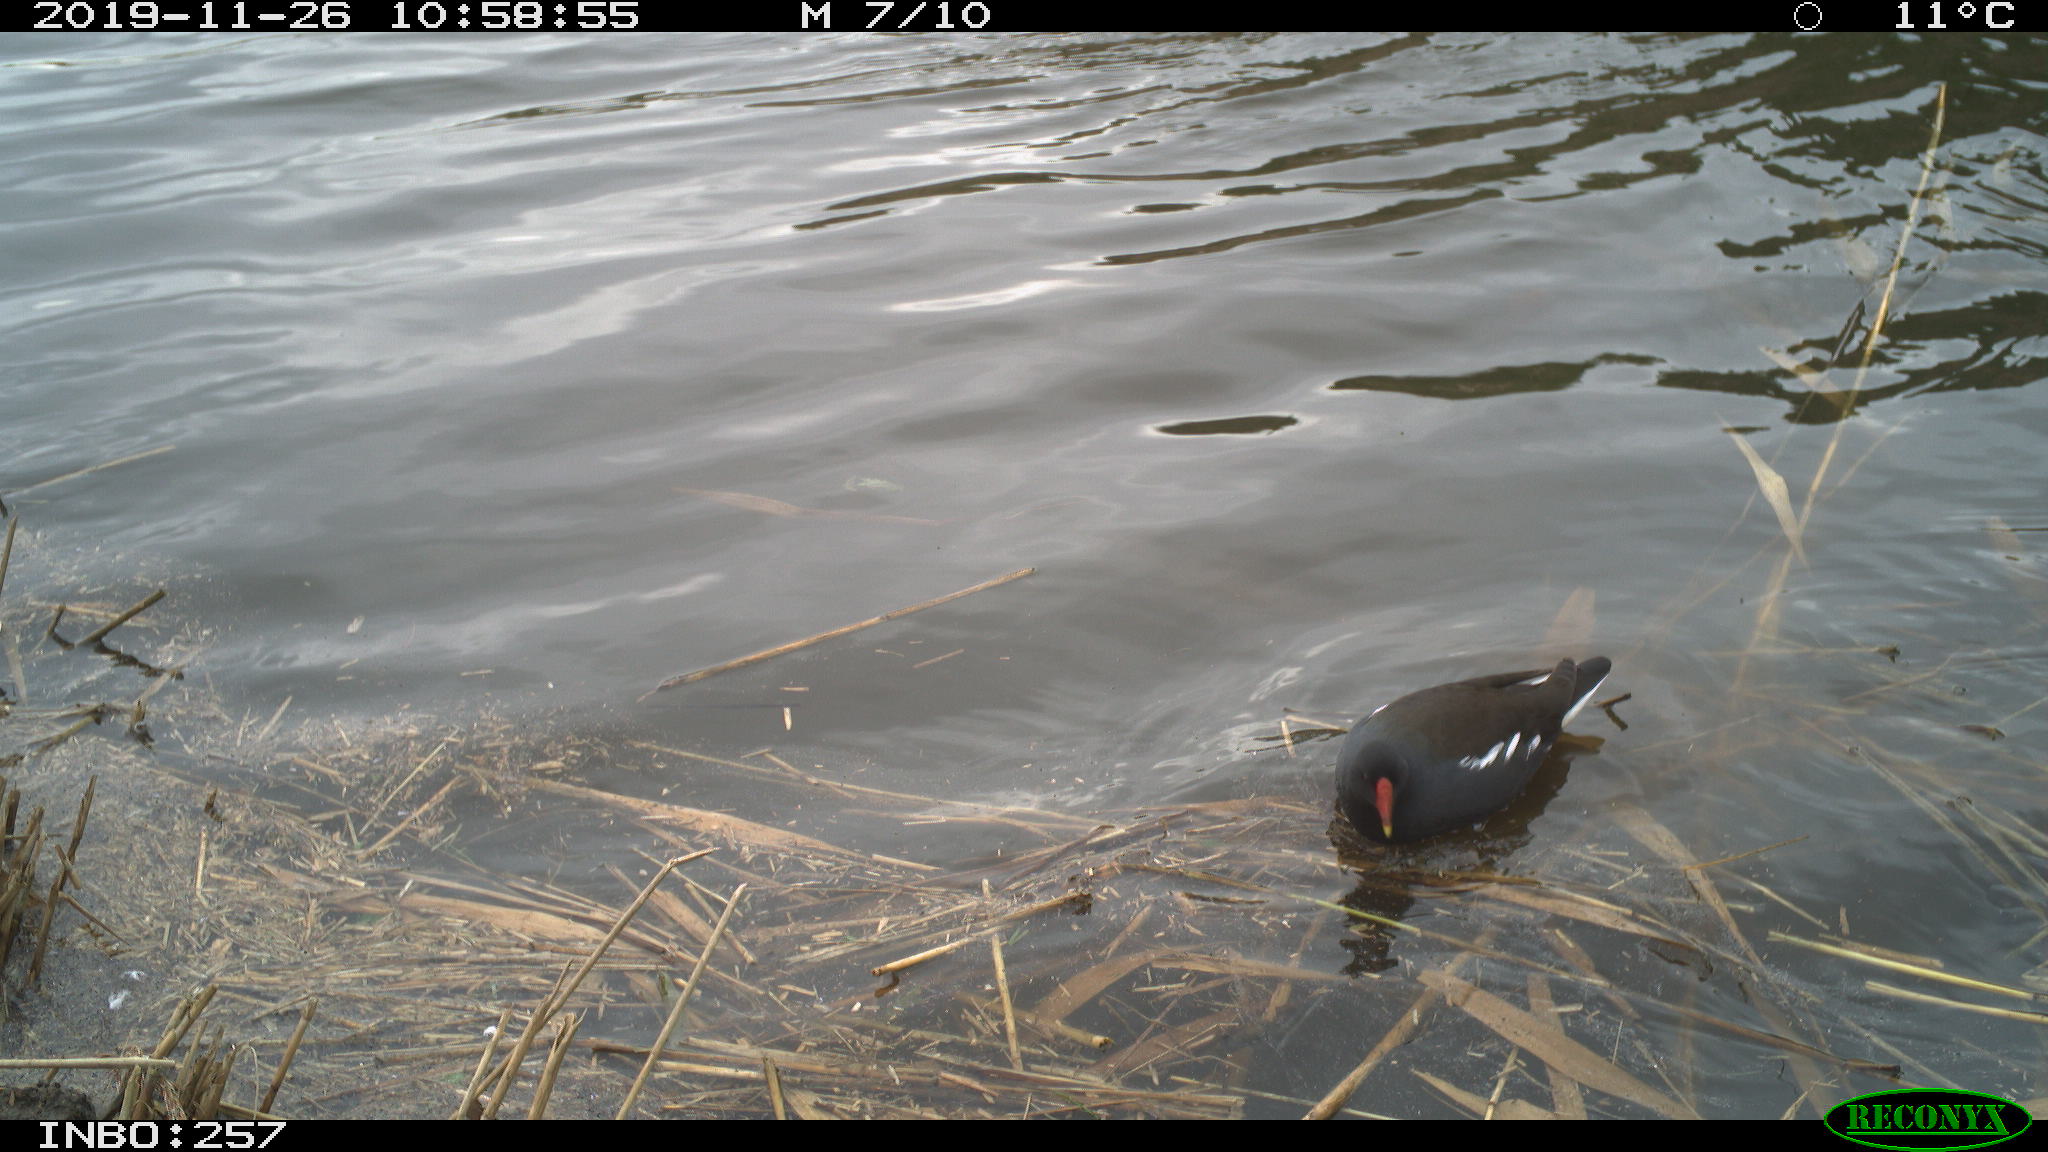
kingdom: Animalia
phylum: Chordata
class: Aves
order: Gruiformes
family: Rallidae
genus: Gallinula
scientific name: Gallinula chloropus
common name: Common moorhen
